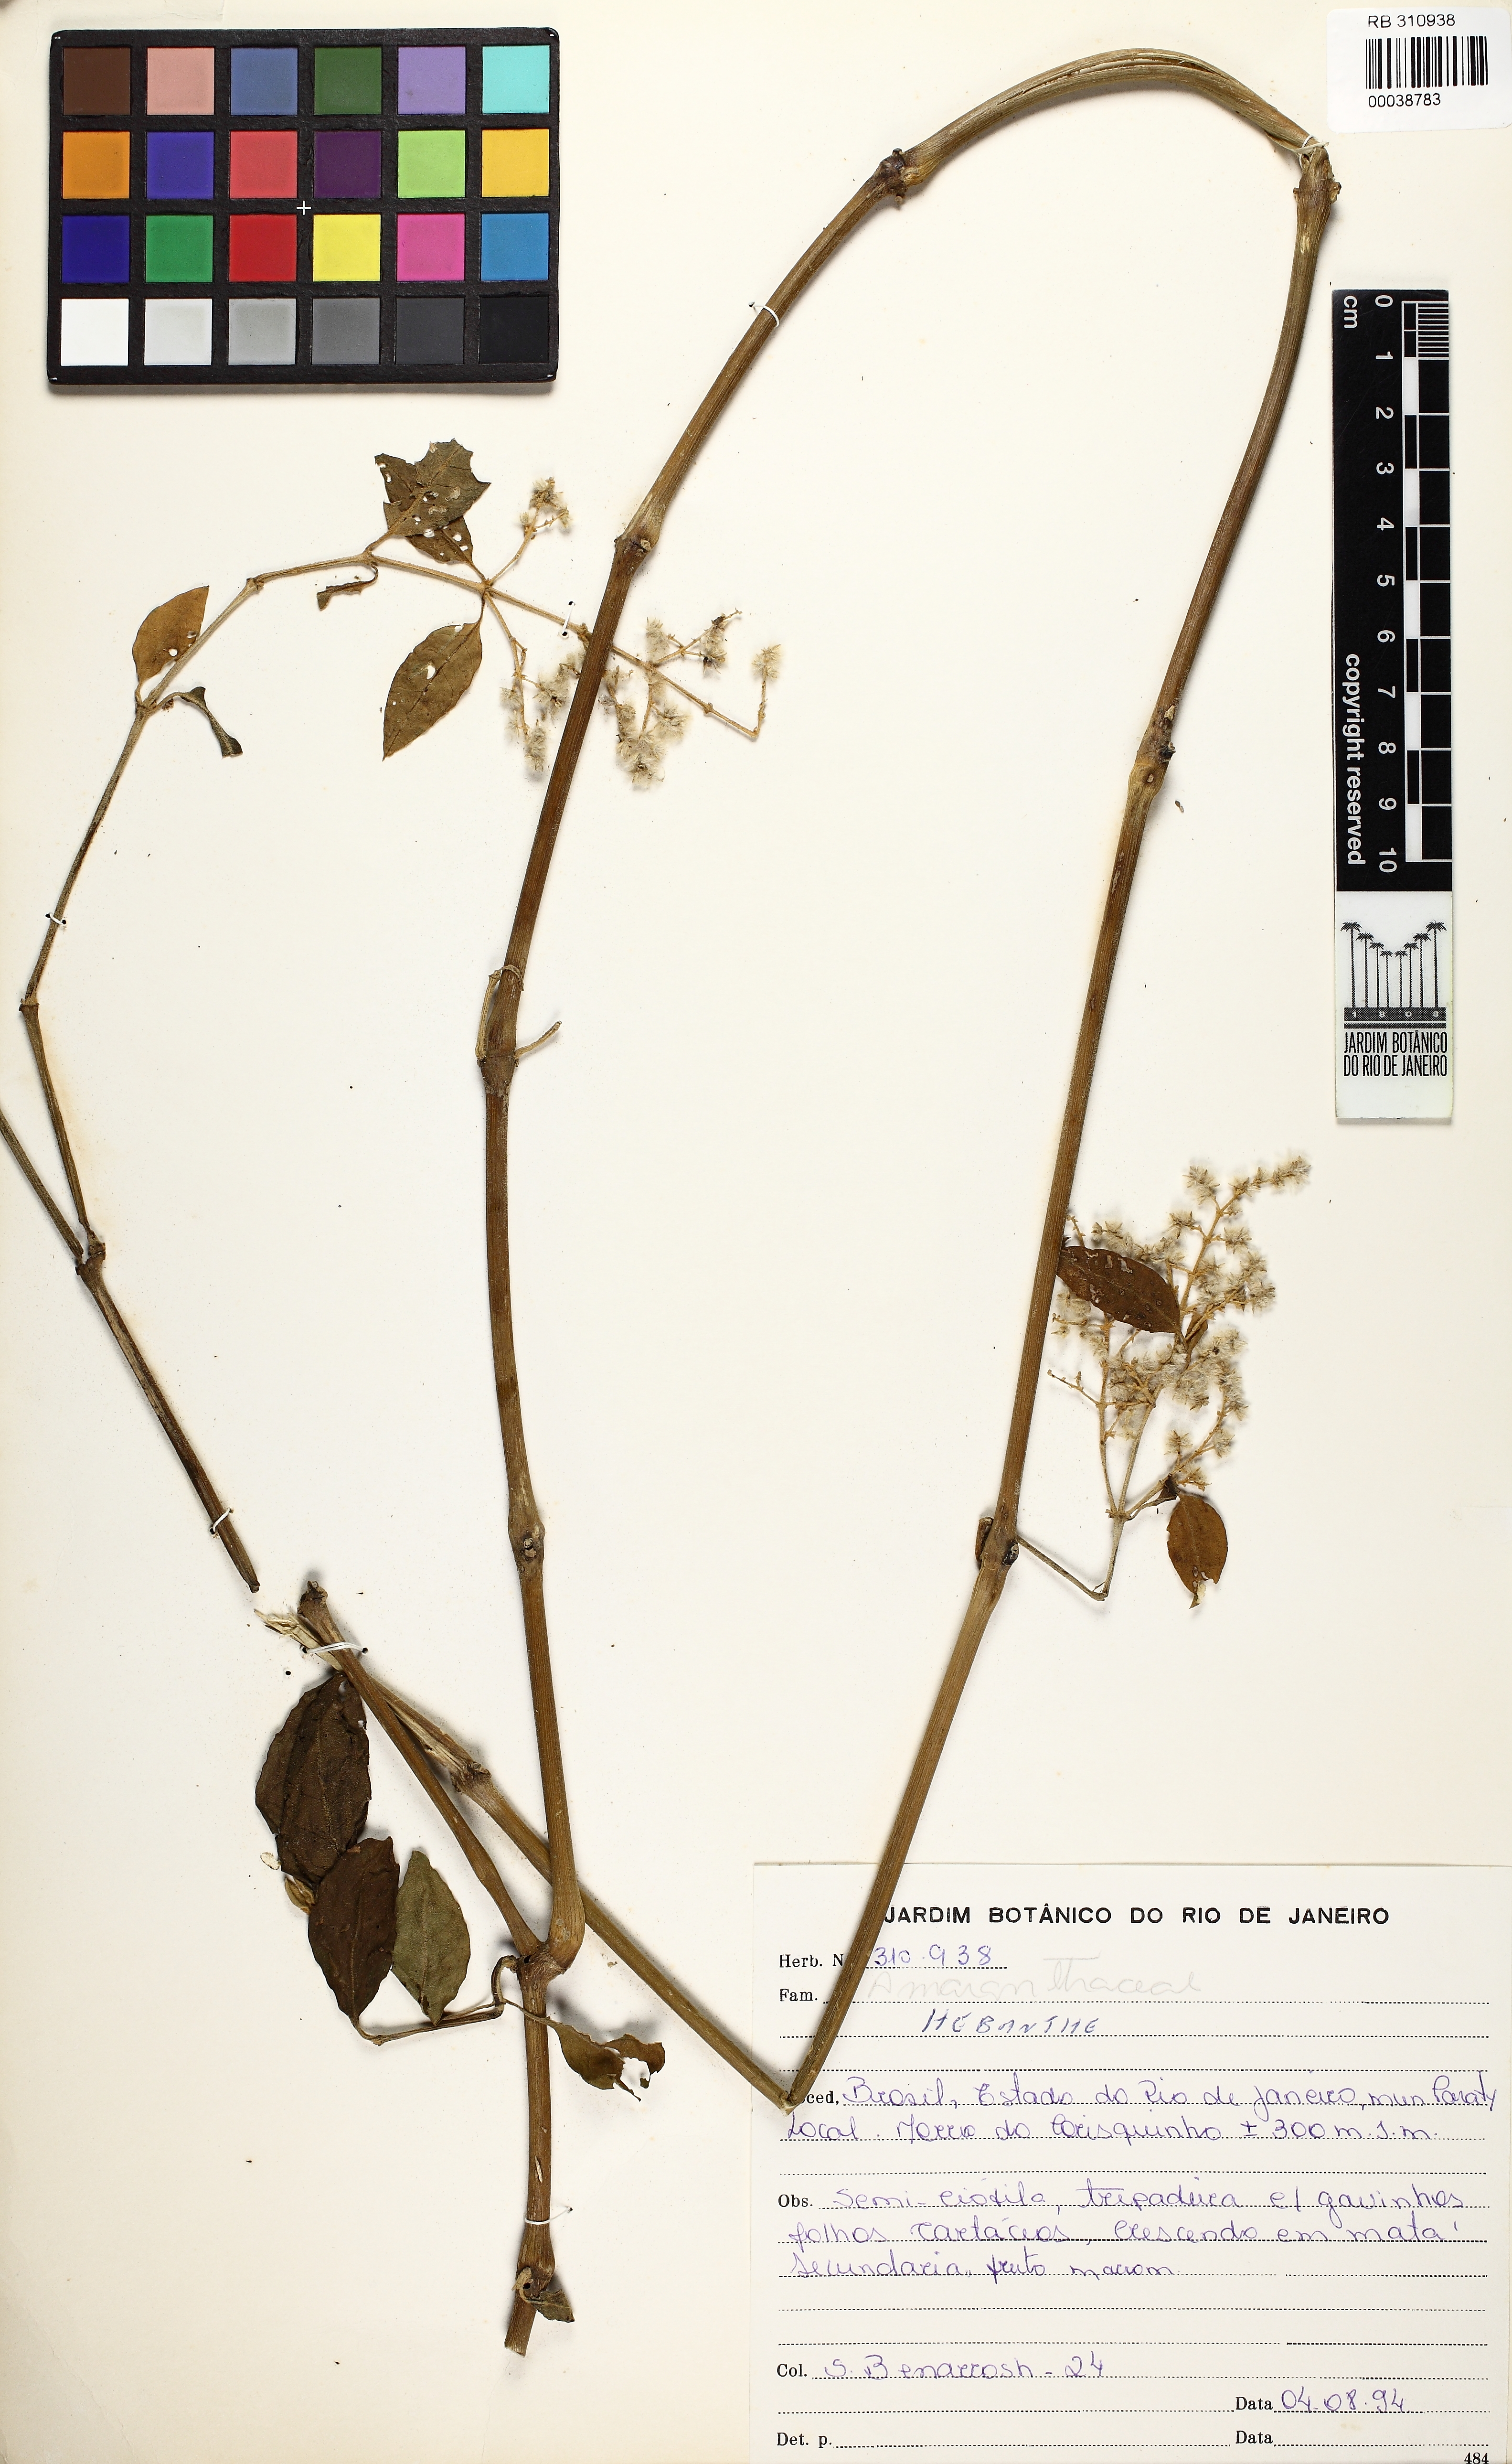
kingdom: Plantae
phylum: Tracheophyta
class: Magnoliopsida
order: Caryophyllales
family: Amaranthaceae
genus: Hebanthe
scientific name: Hebanthe
